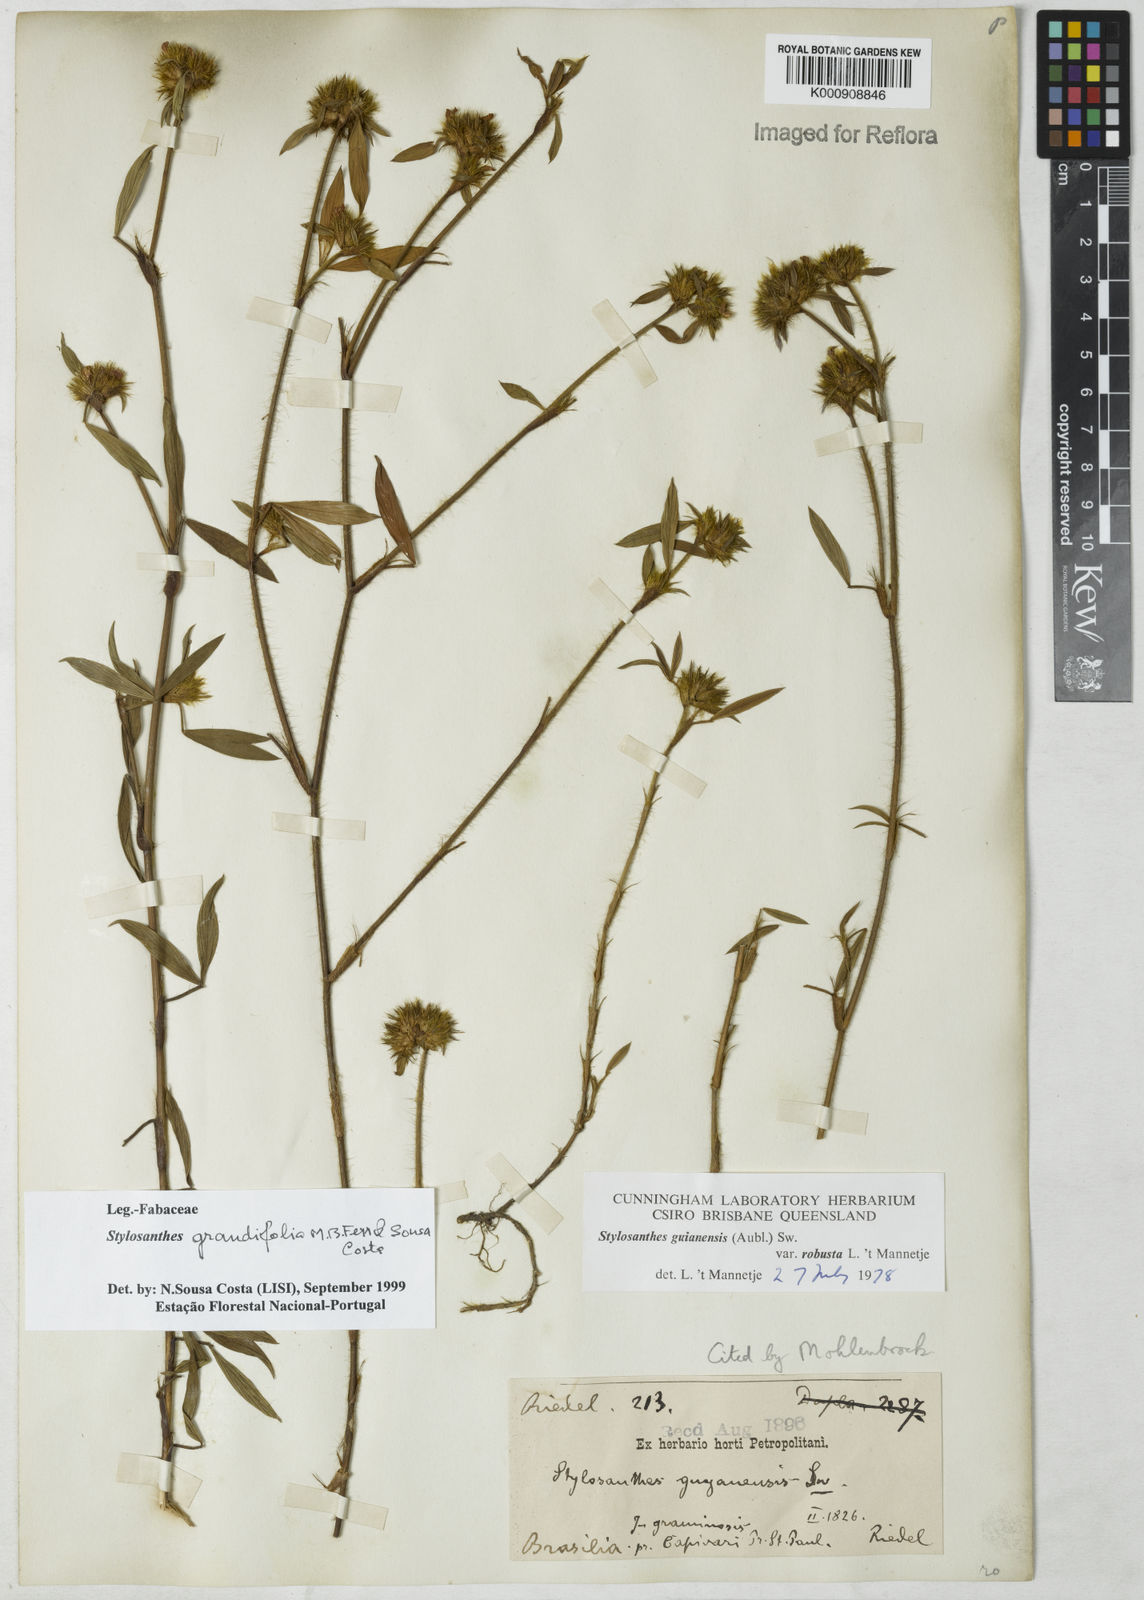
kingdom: Plantae
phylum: Tracheophyta
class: Magnoliopsida
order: Fabales
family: Fabaceae
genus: Stylosanthes
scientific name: Stylosanthes guianensis
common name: Pencil flower
